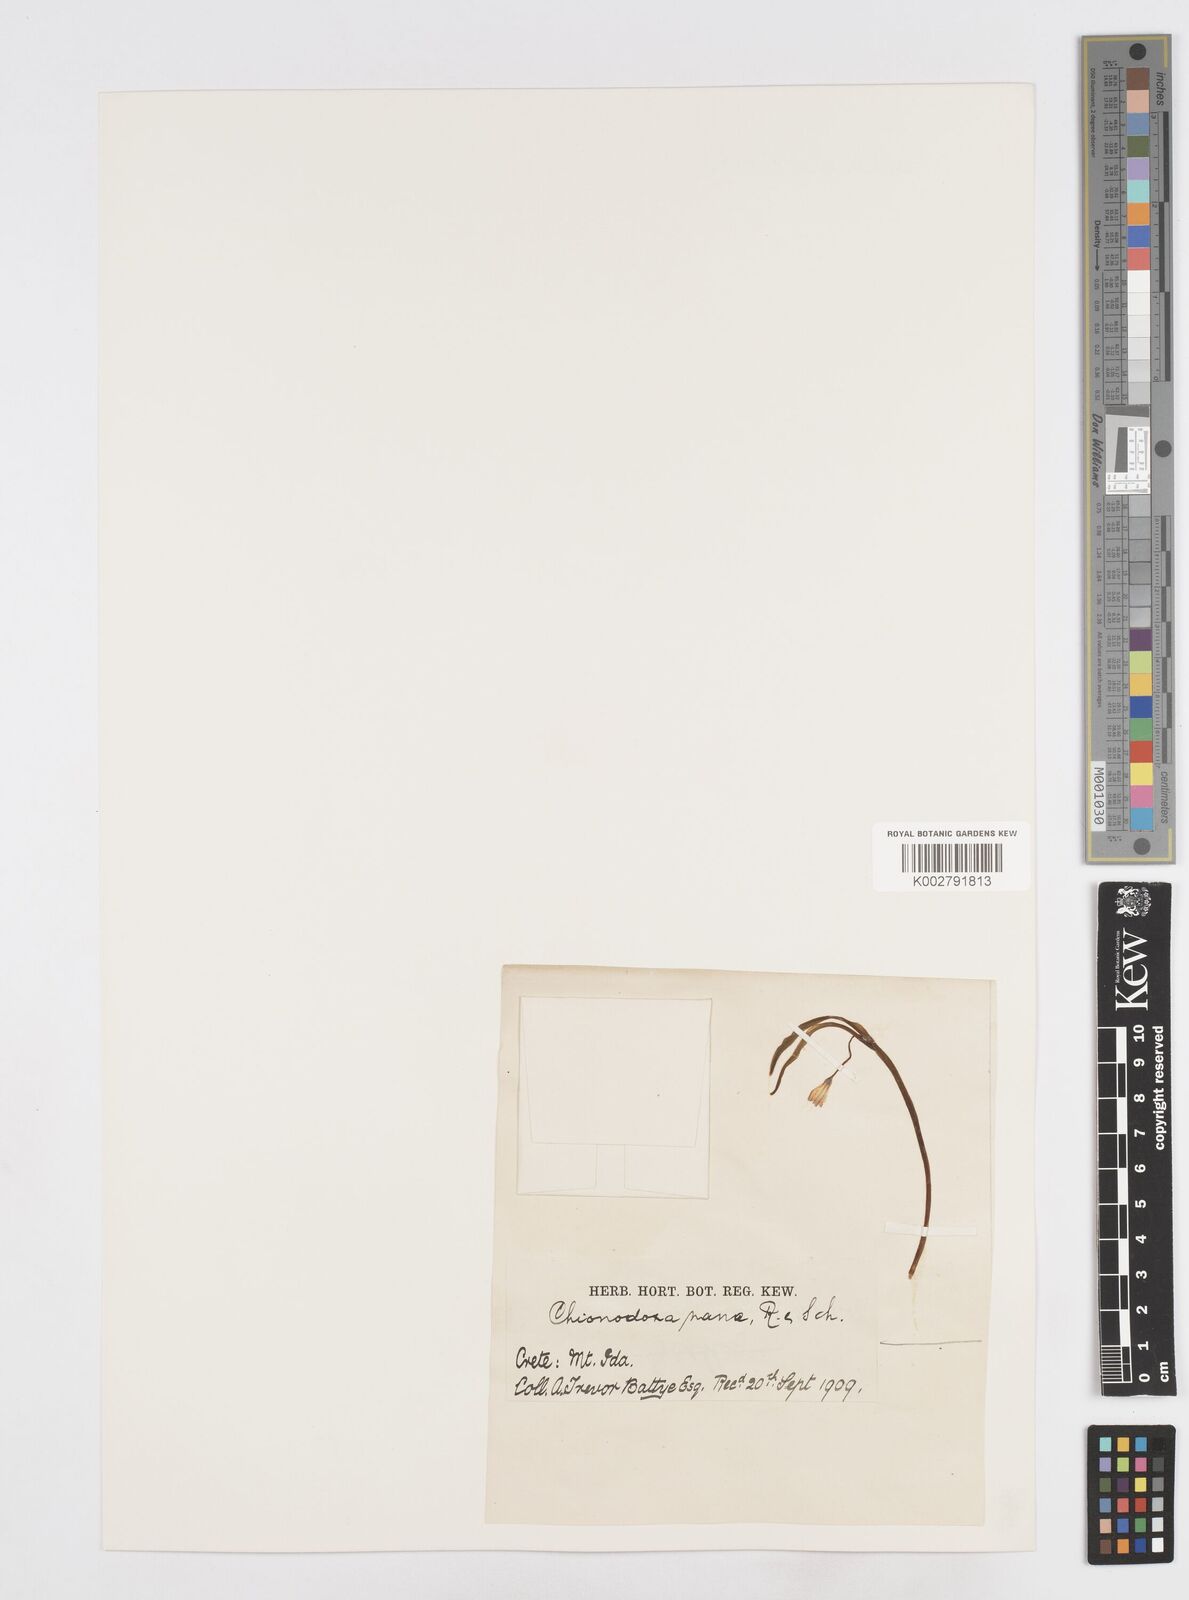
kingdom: Plantae
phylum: Tracheophyta
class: Liliopsida
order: Asparagales
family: Asparagaceae
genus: Scilla
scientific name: Scilla cretica
